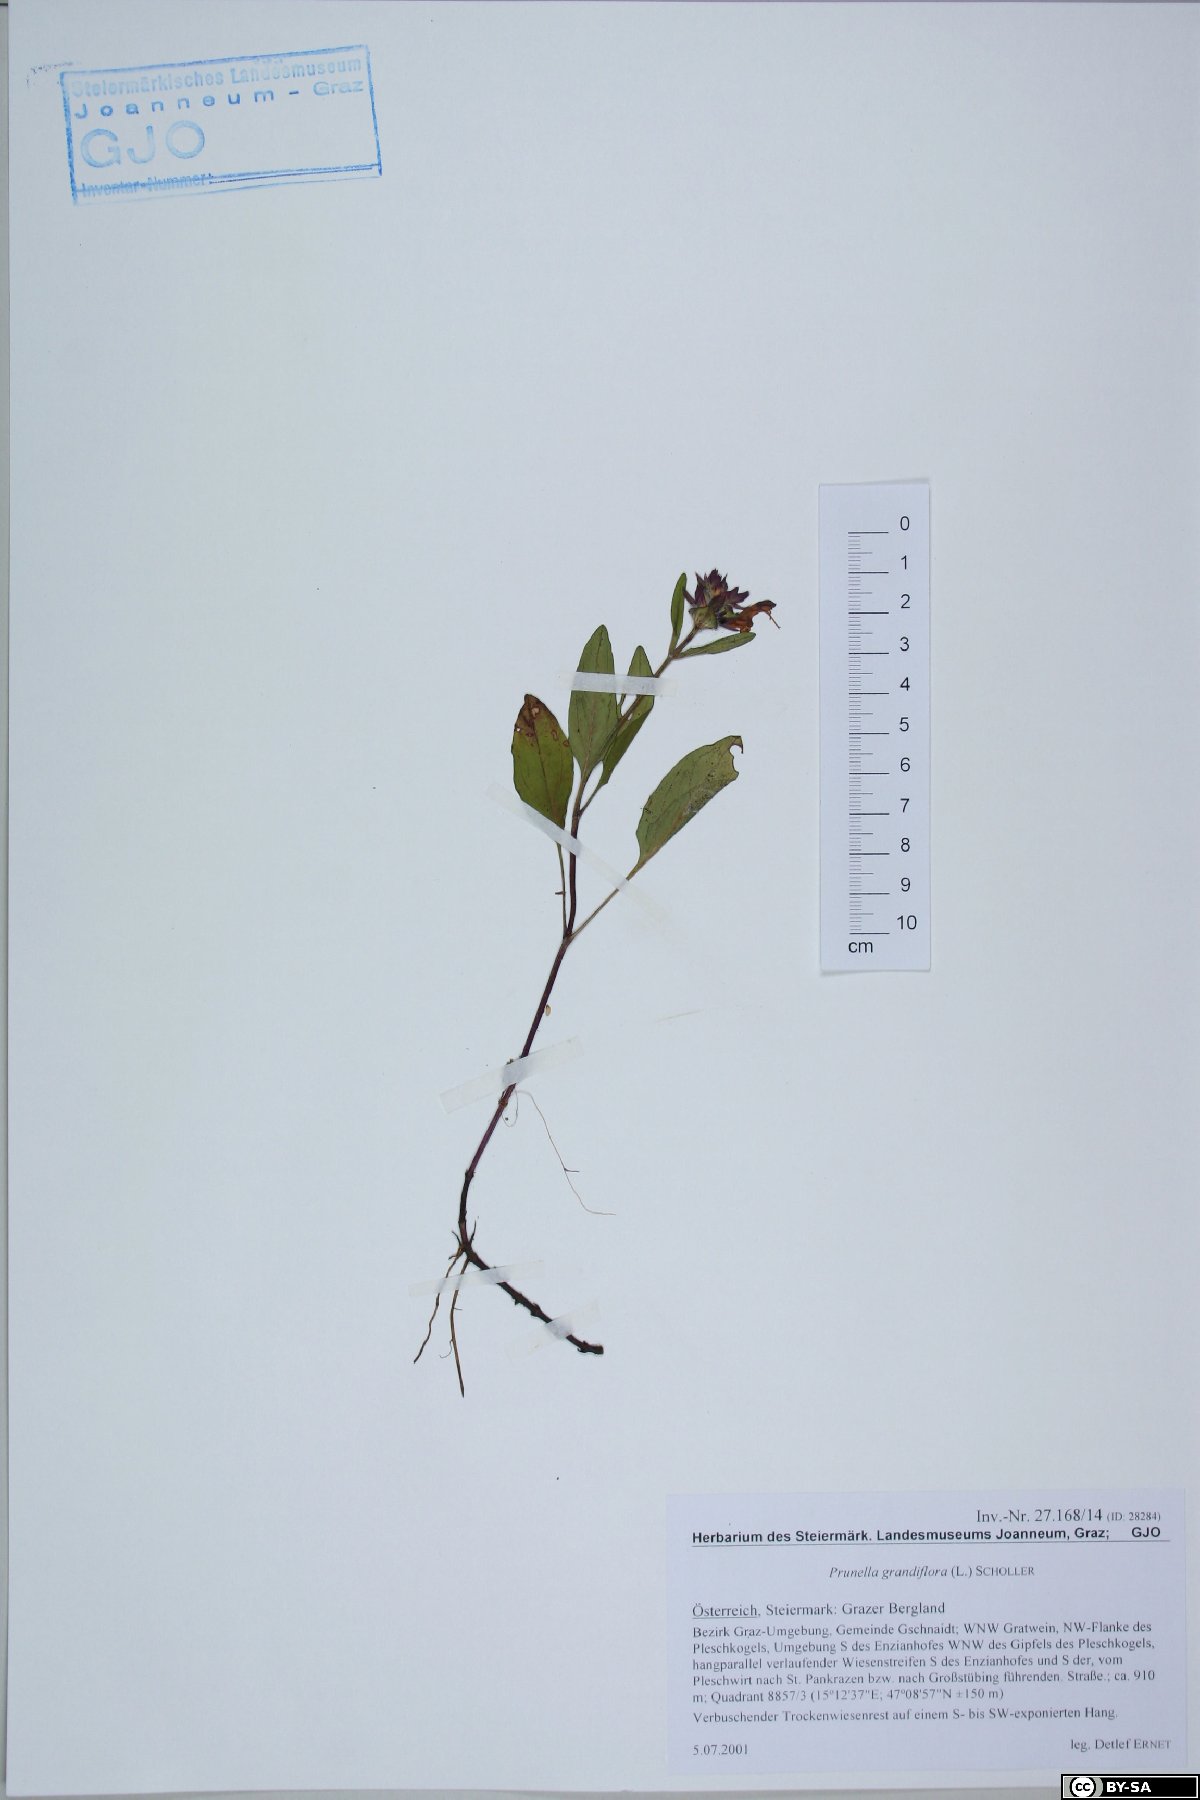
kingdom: Plantae
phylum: Tracheophyta
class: Magnoliopsida
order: Lamiales
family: Lamiaceae
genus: Prunella
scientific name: Prunella grandiflora
